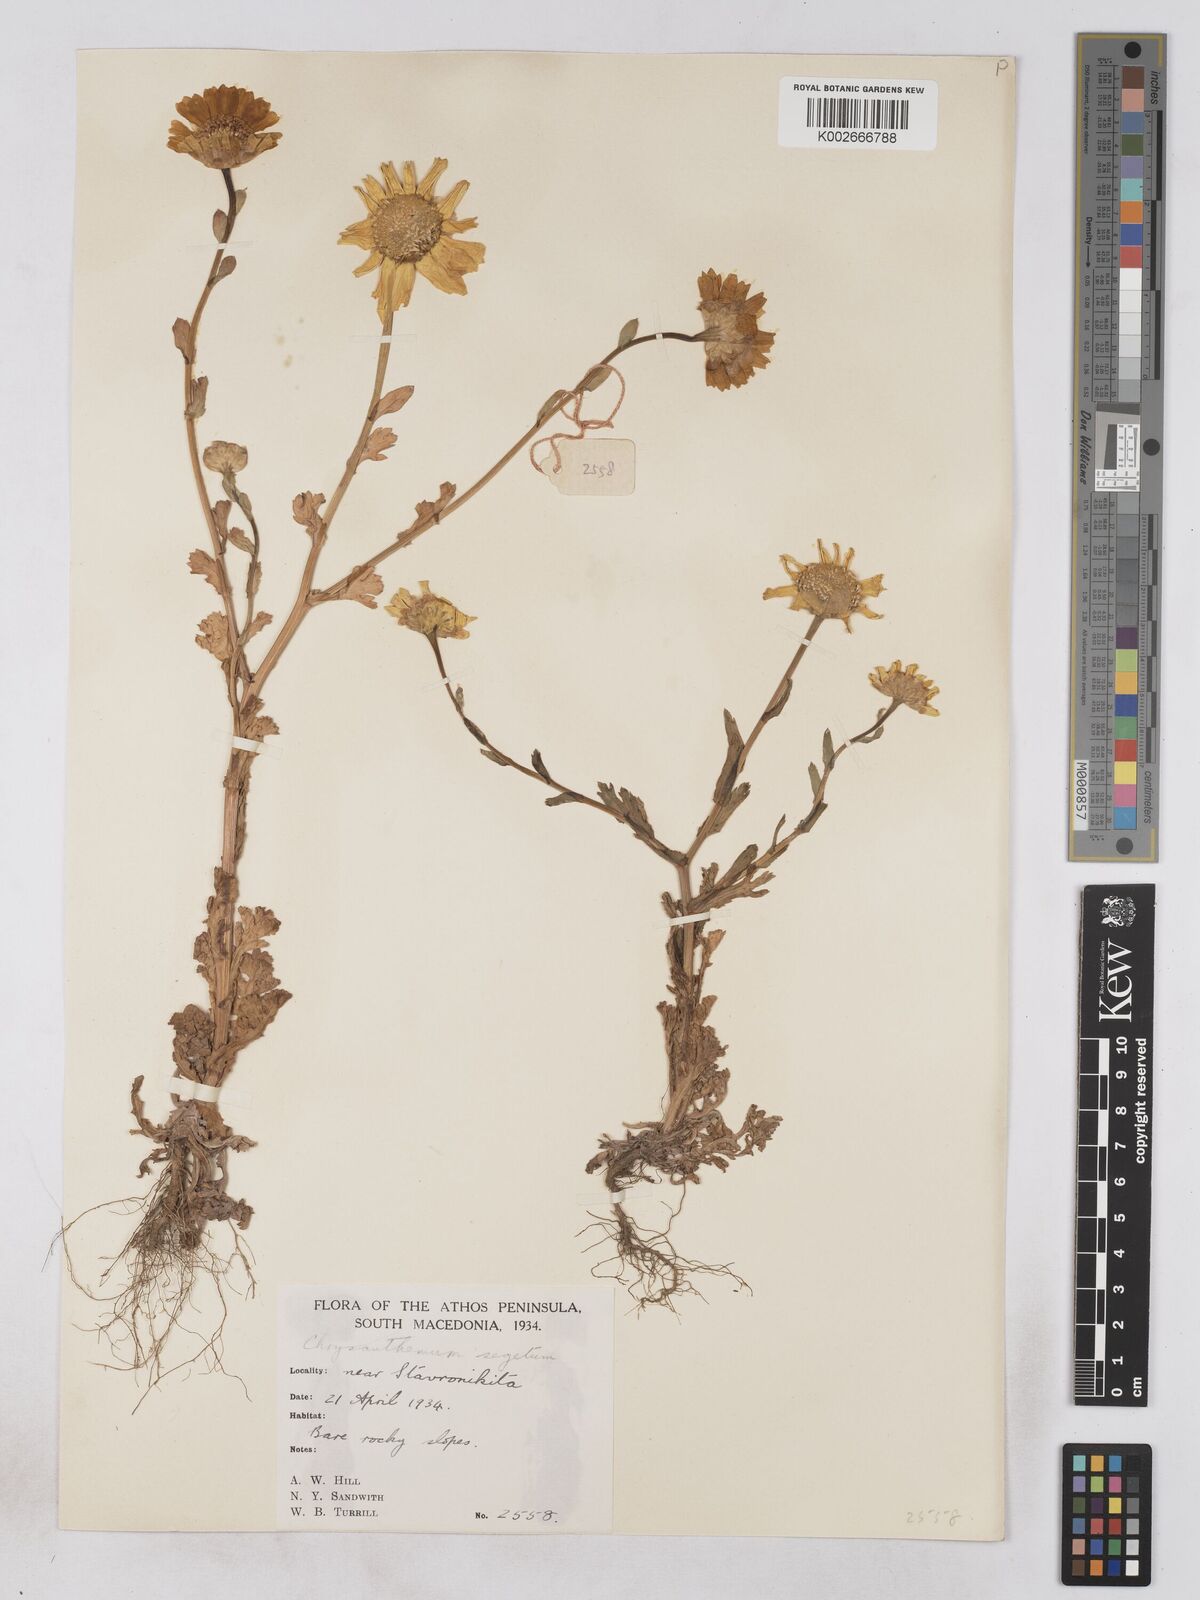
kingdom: Plantae
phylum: Tracheophyta
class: Magnoliopsida
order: Asterales
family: Asteraceae
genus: Glebionis
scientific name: Glebionis segetum
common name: Corndaisy
